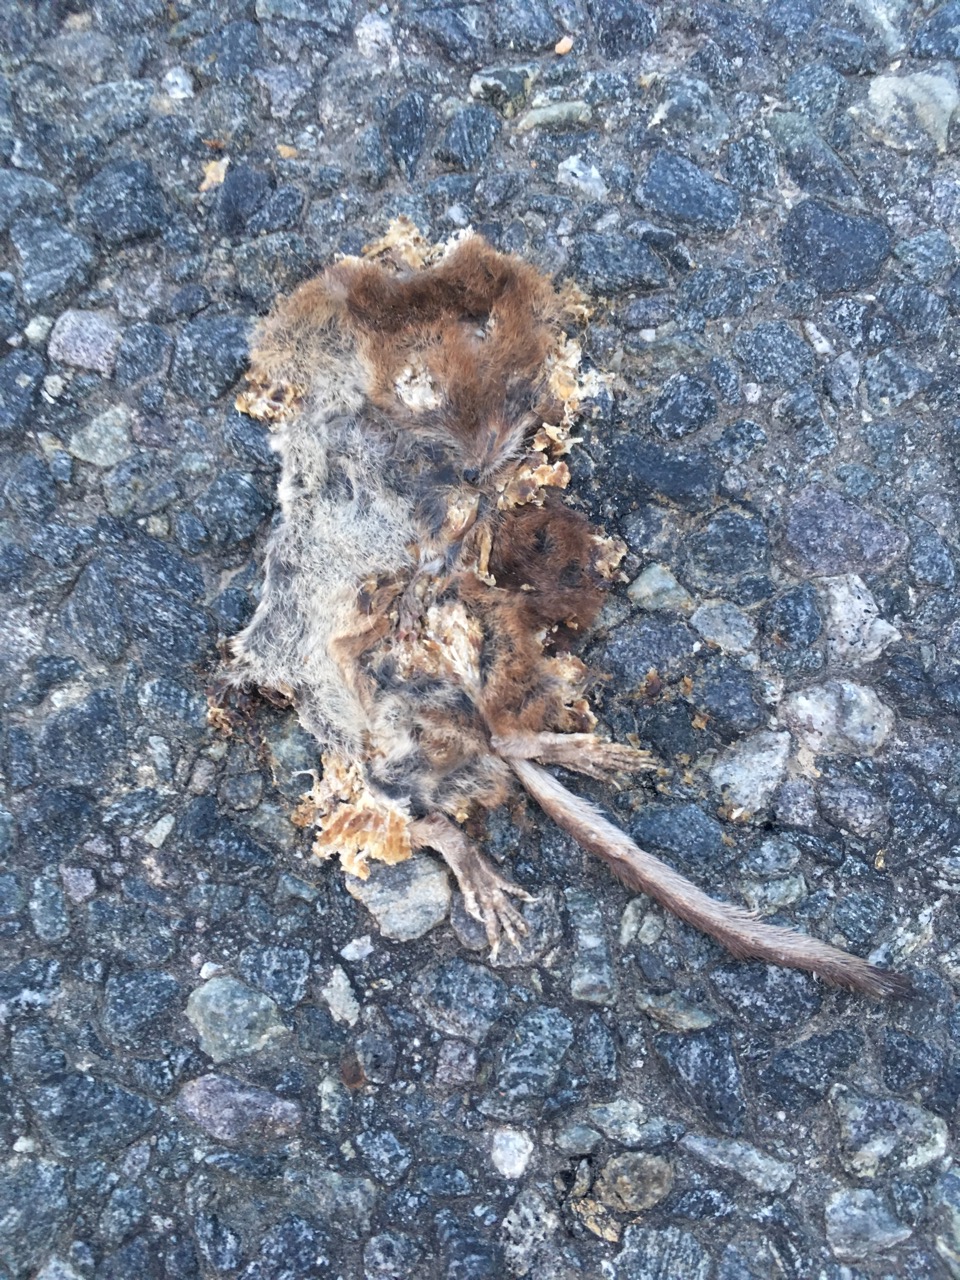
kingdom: Animalia
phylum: Chordata
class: Mammalia
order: Soricomorpha
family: Soricidae
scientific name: Soricidae
